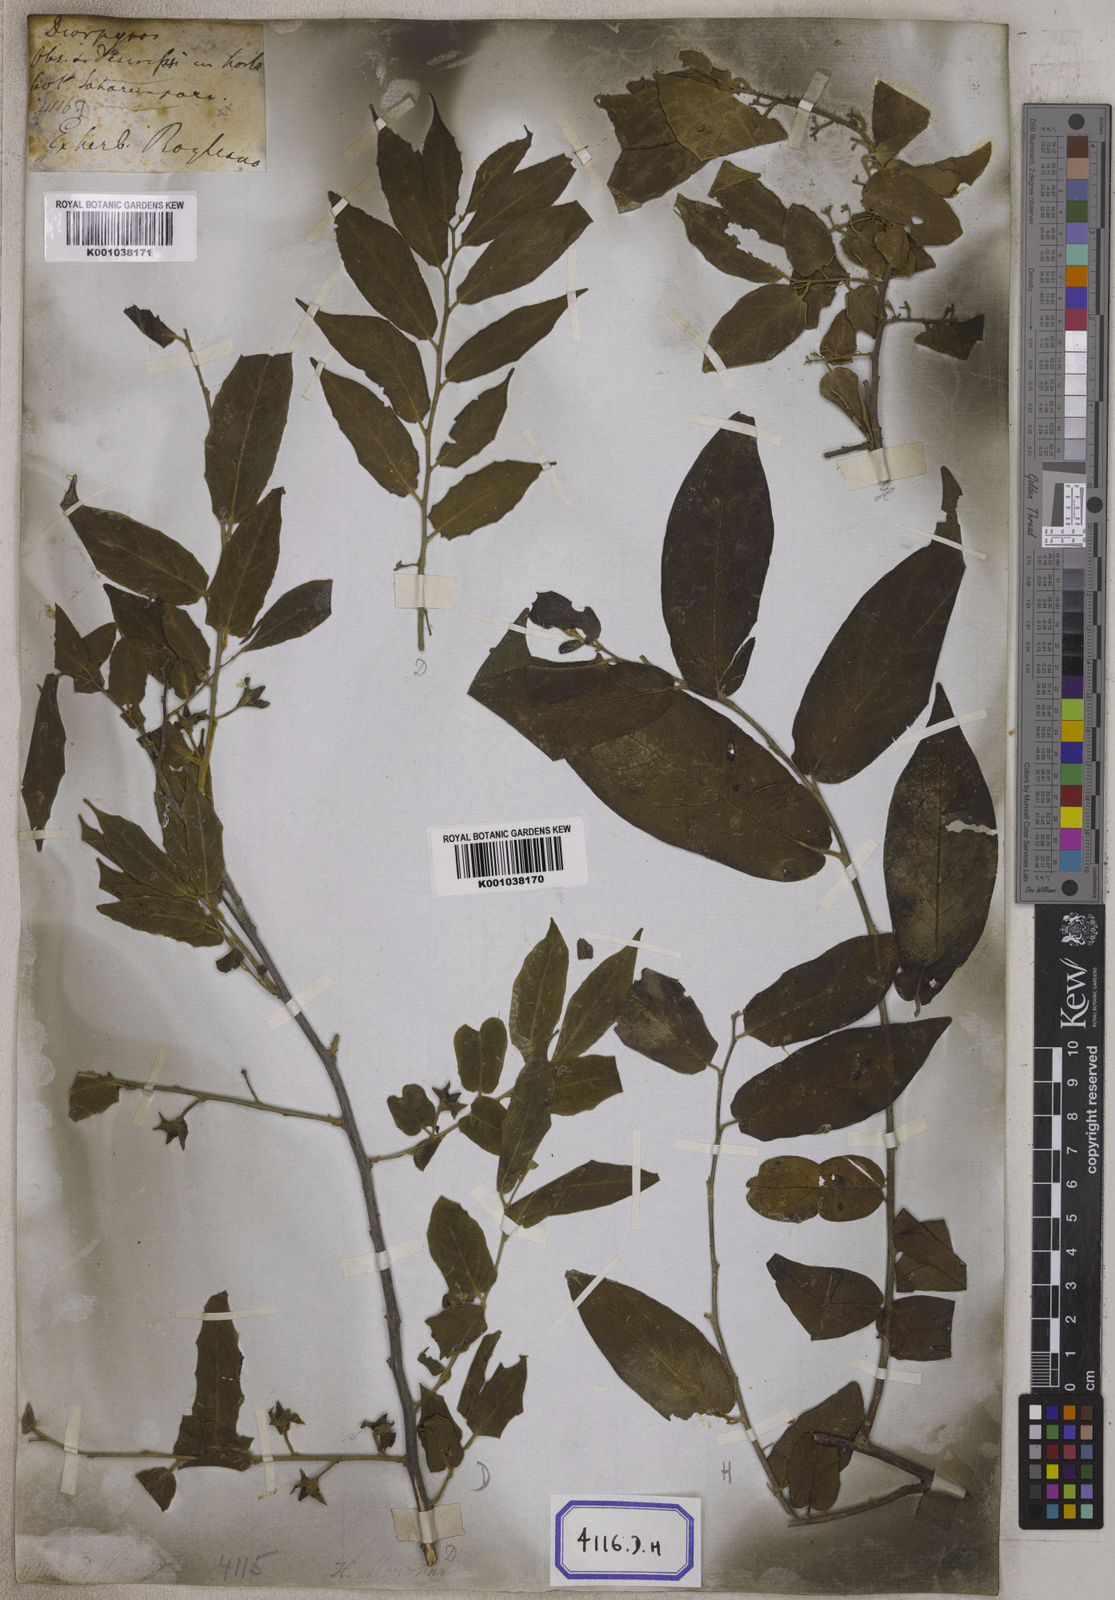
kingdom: Plantae
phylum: Tracheophyta
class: Magnoliopsida
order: Ericales
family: Ebenaceae
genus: Diospyros
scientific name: Diospyros montana
